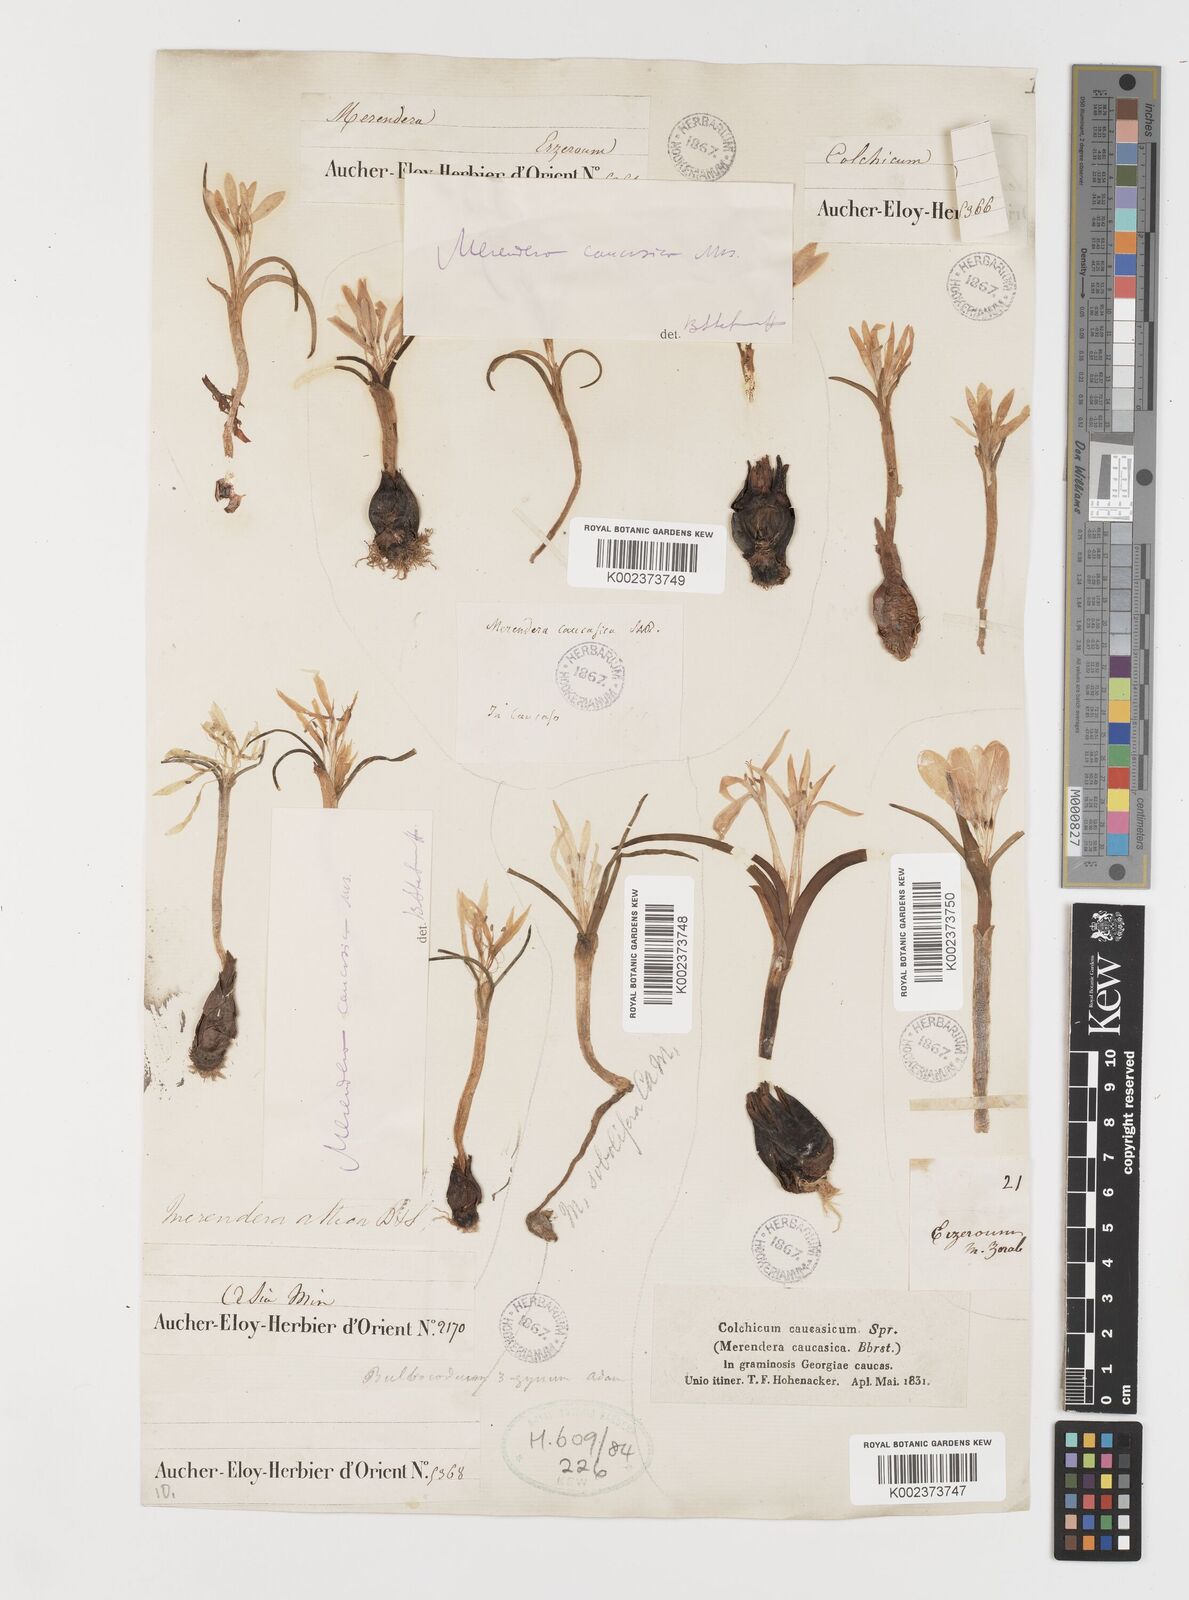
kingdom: Plantae
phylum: Tracheophyta
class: Liliopsida
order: Liliales
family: Colchicaceae
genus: Colchicum
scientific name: Colchicum atticum
